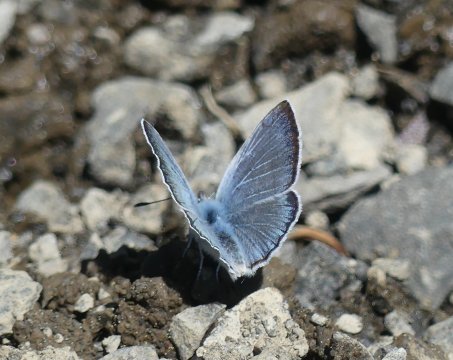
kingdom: Animalia
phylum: Arthropoda
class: Insecta
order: Lepidoptera
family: Lycaenidae
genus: Glaucopsyche
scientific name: Glaucopsyche lygdamus
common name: Silvery Blue
